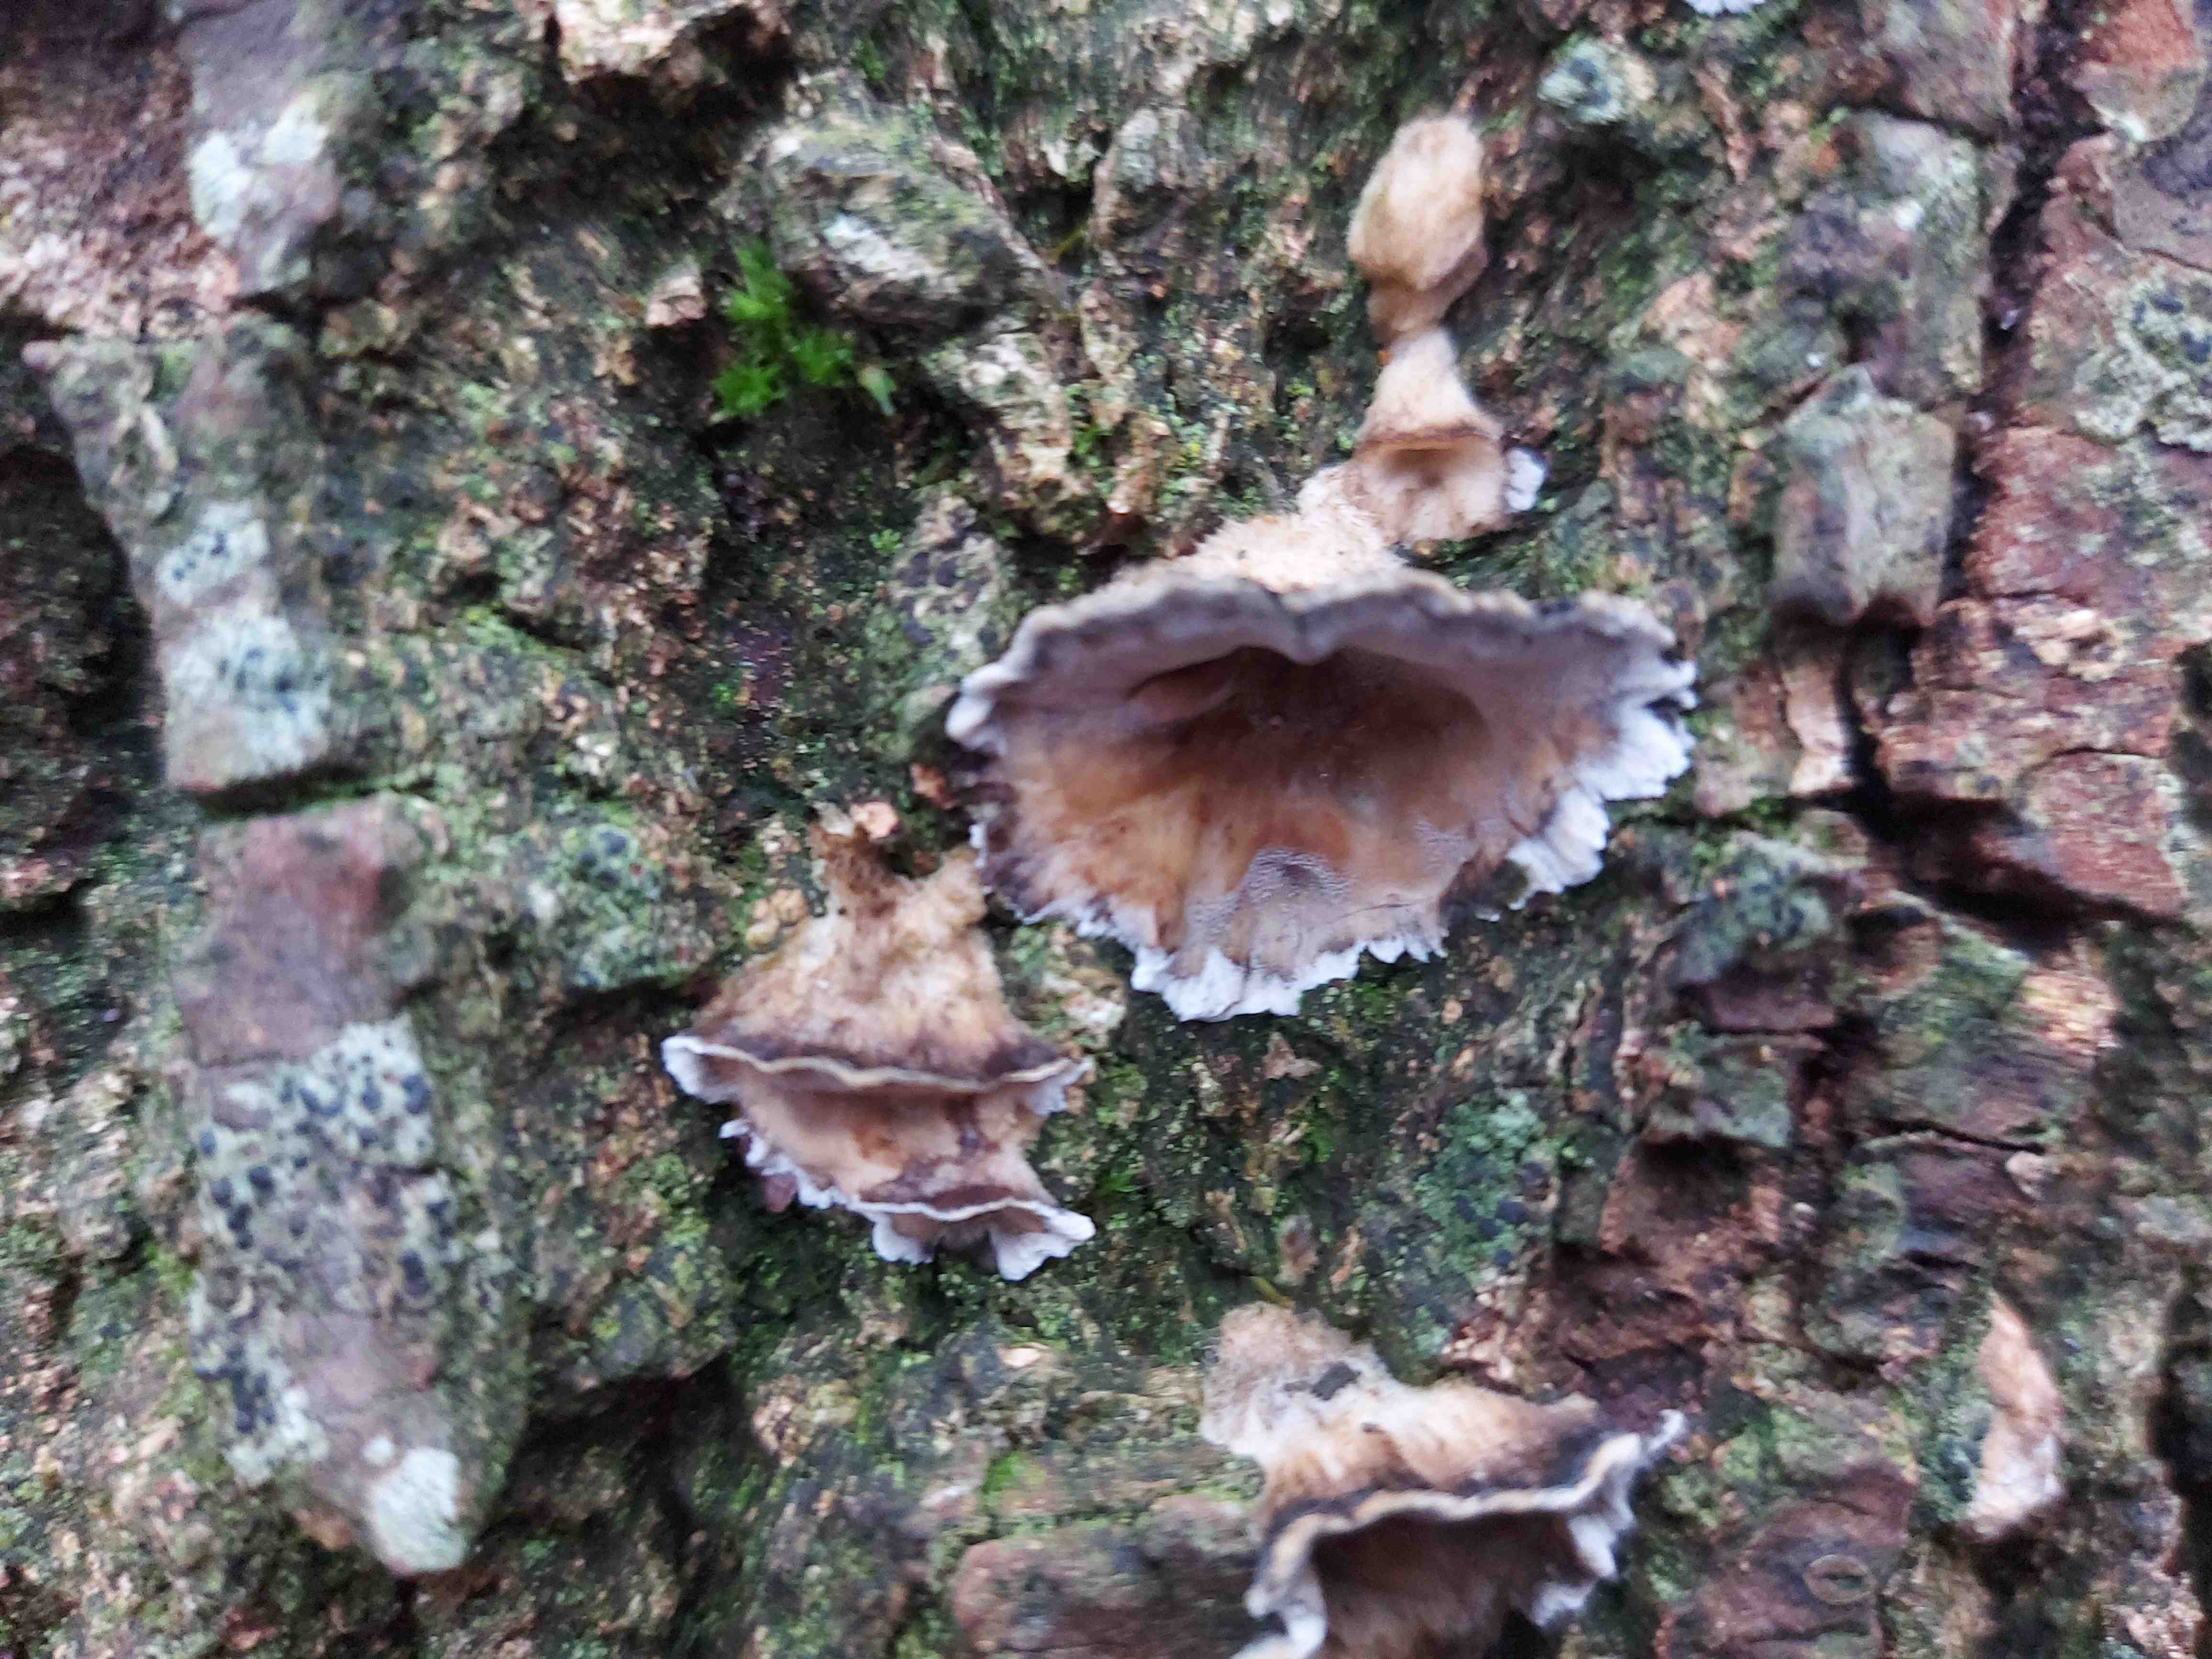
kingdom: Fungi
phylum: Basidiomycota
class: Agaricomycetes
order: Polyporales
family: Phanerochaetaceae
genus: Bjerkandera
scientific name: Bjerkandera adusta
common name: sveden sodporesvamp
